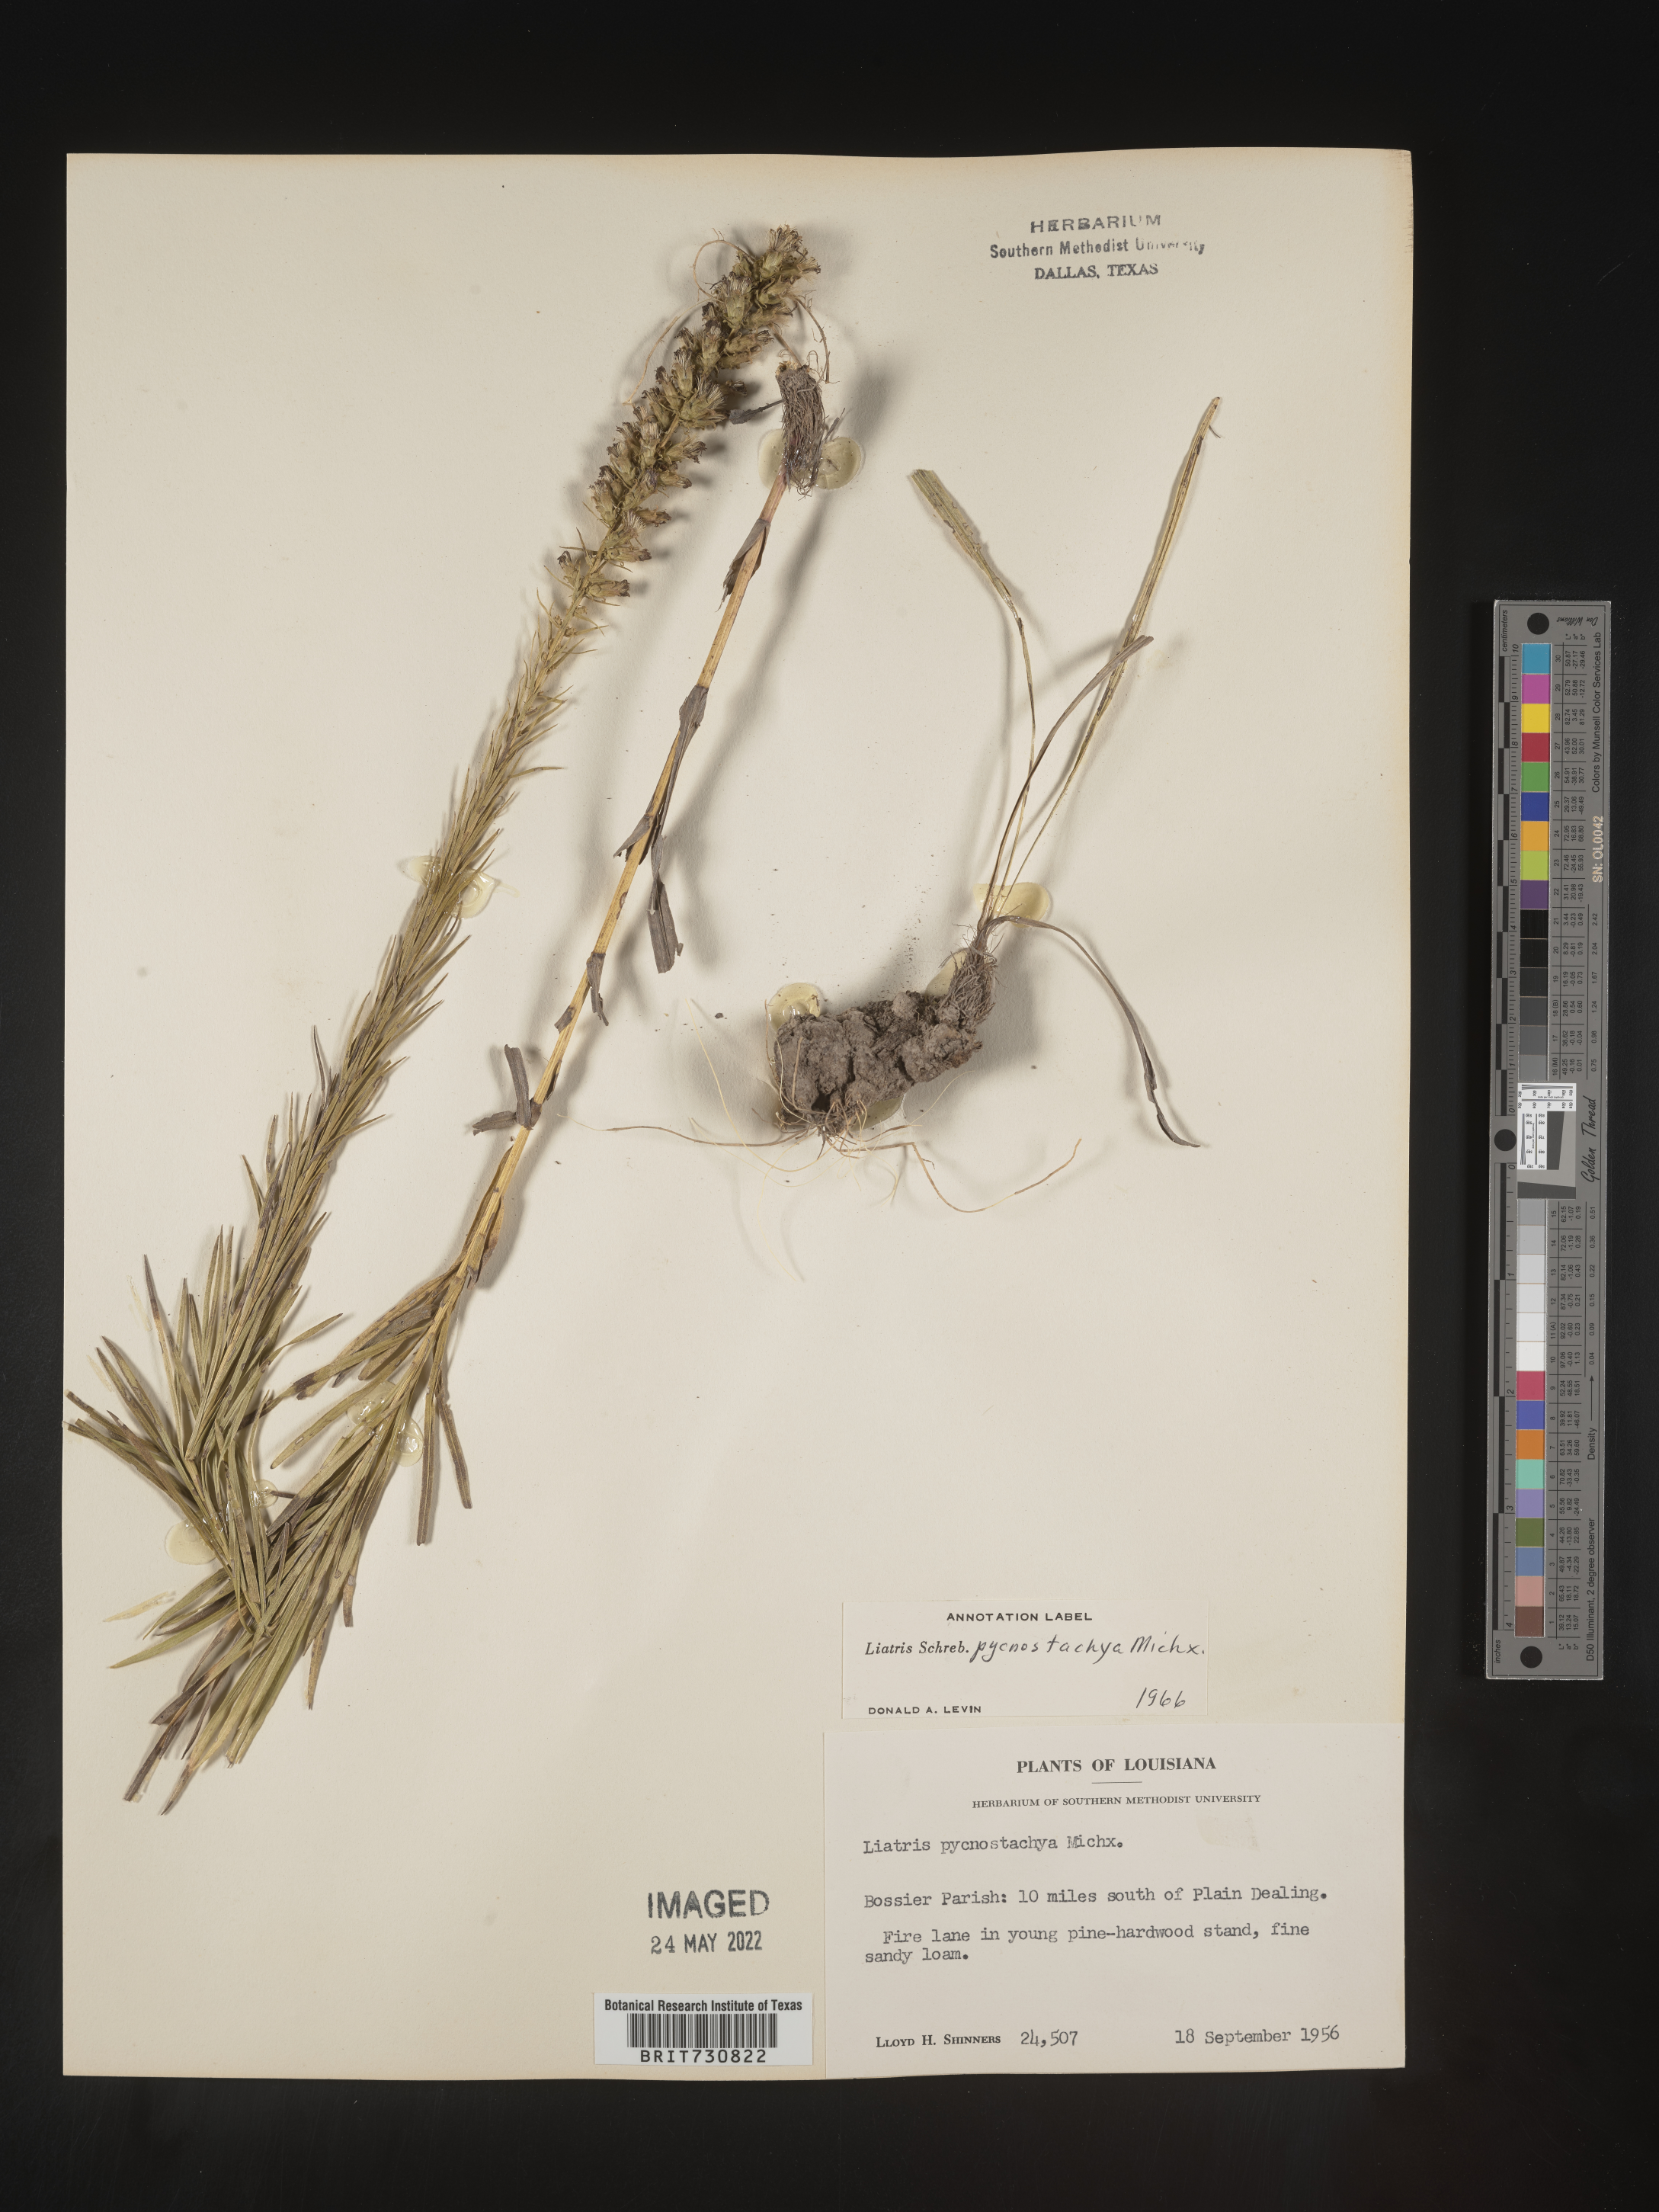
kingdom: Plantae
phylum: Tracheophyta
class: Magnoliopsida
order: Asterales
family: Asteraceae
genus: Liatris
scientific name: Liatris pycnostachya
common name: Cattail gayfeather
